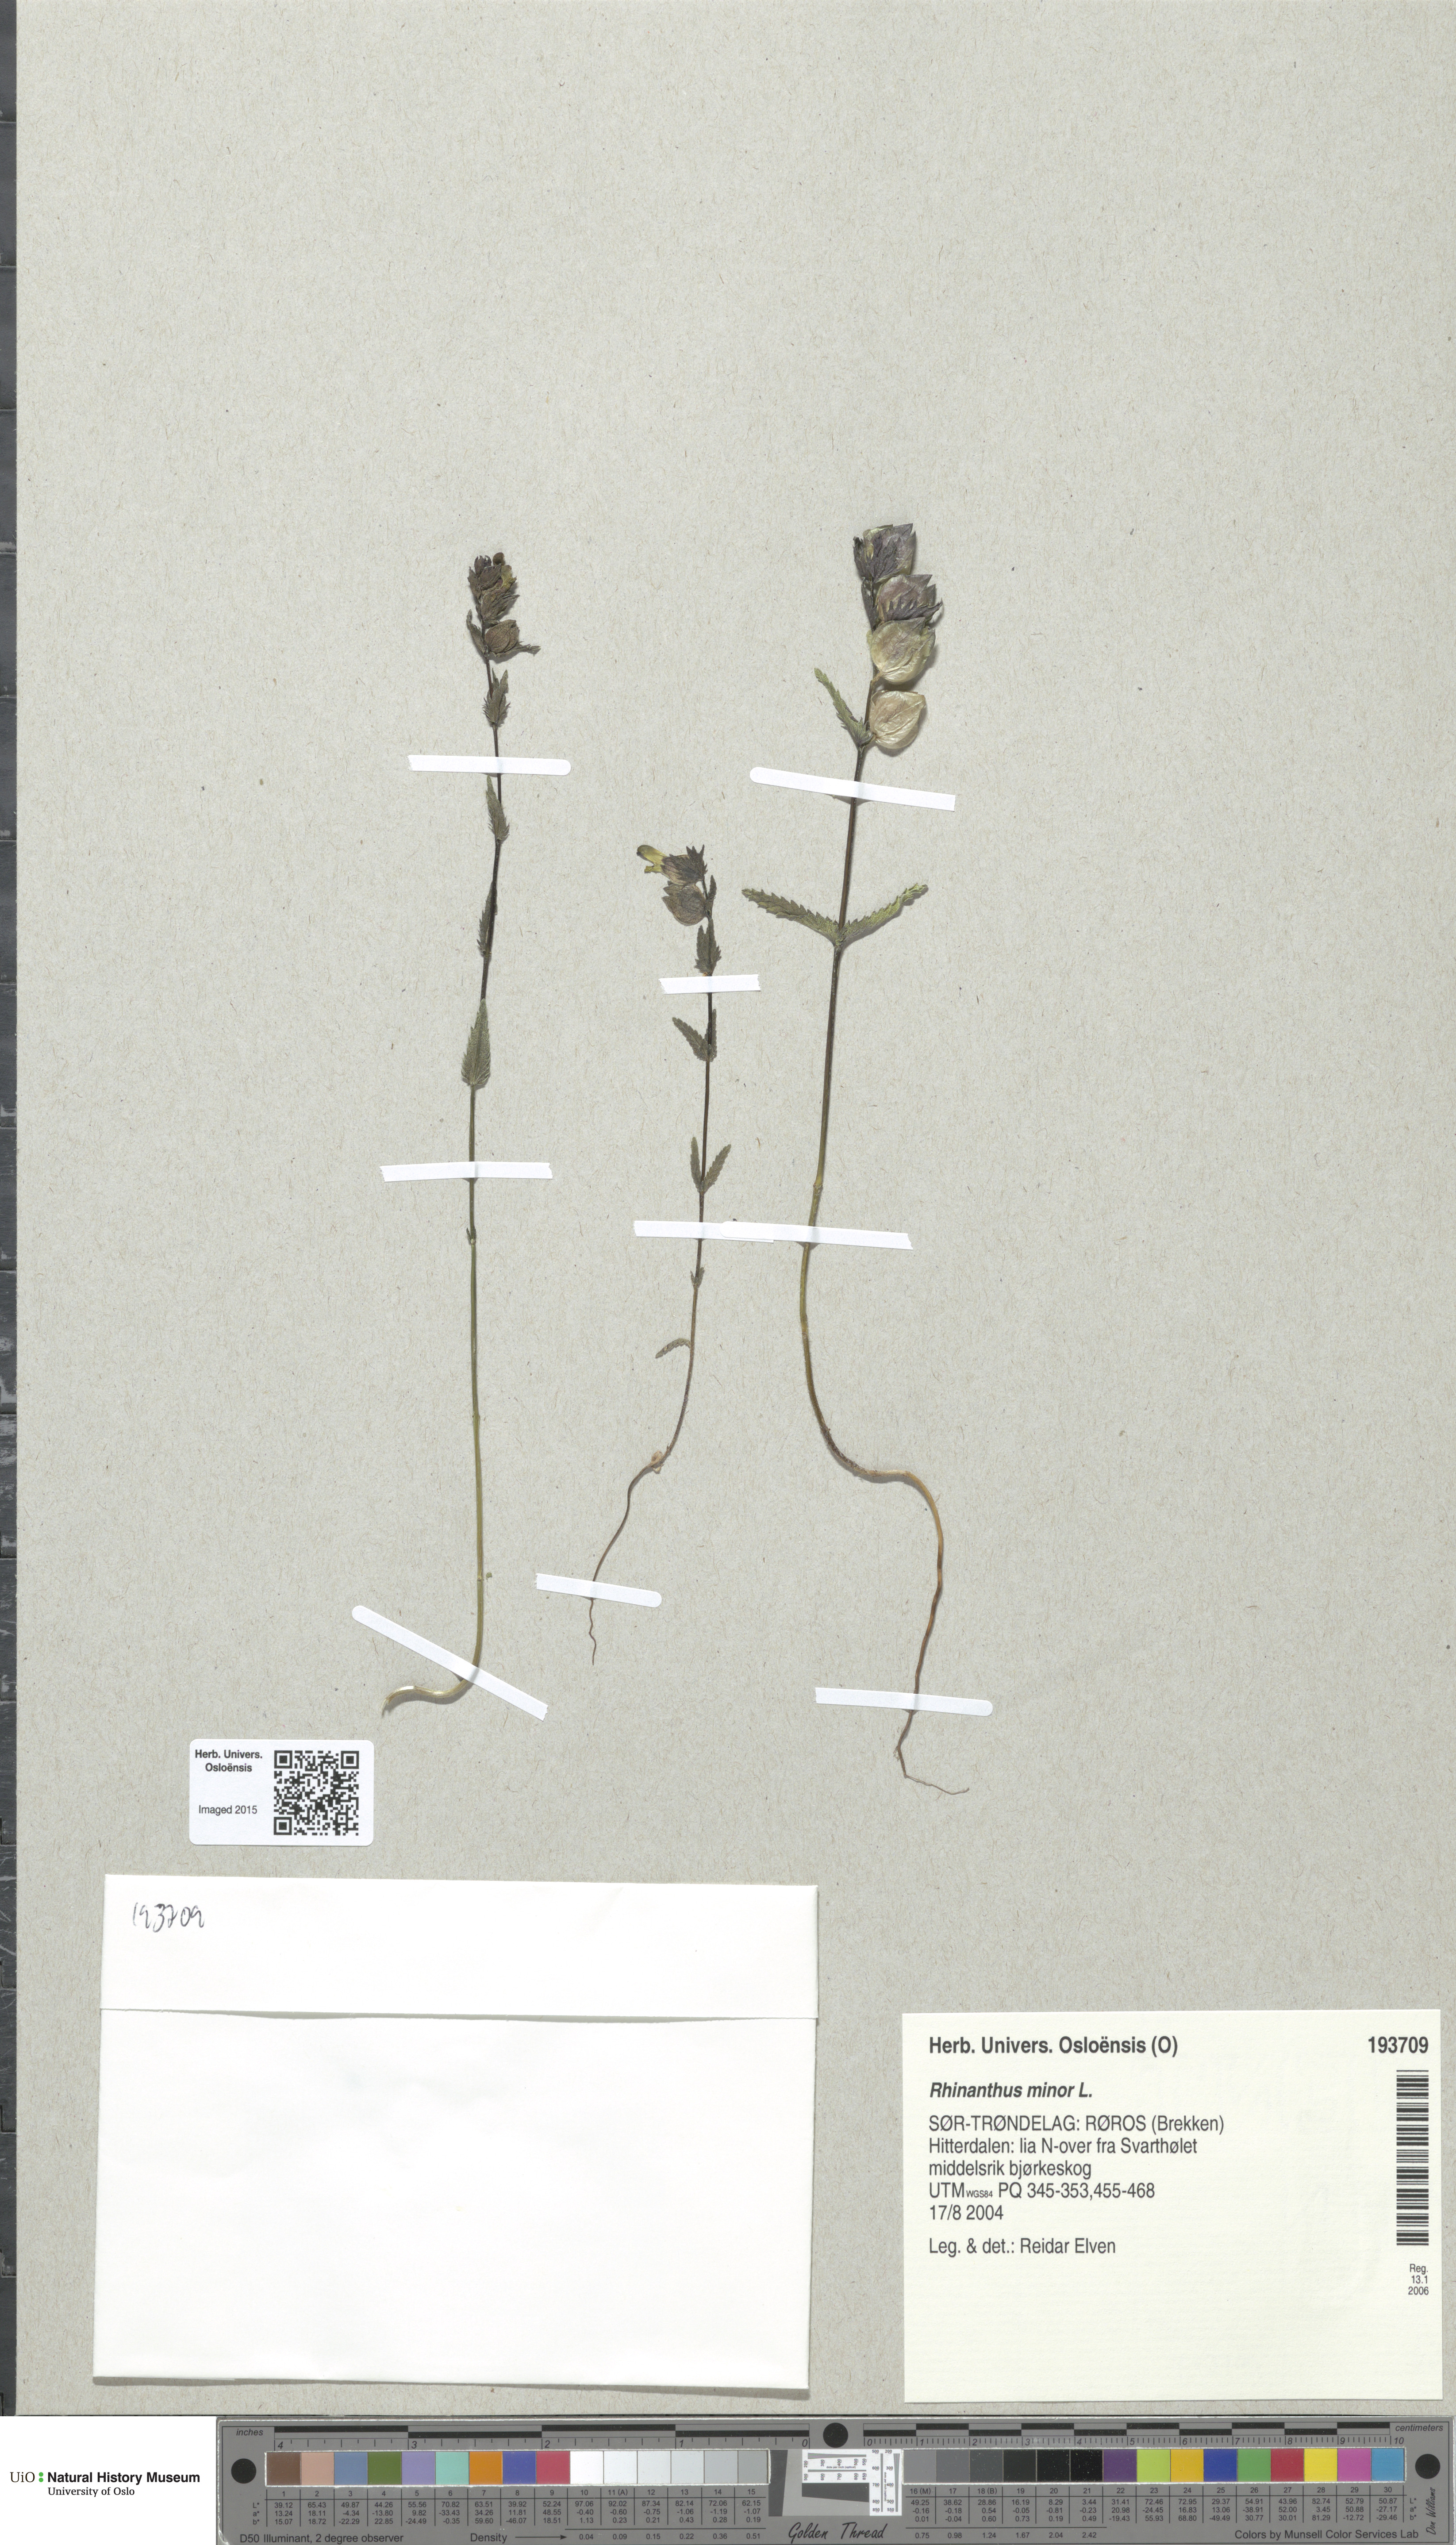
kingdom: Plantae
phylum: Tracheophyta
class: Magnoliopsida
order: Lamiales
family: Orobanchaceae
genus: Rhinanthus
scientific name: Rhinanthus minor
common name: Yellow-rattle
